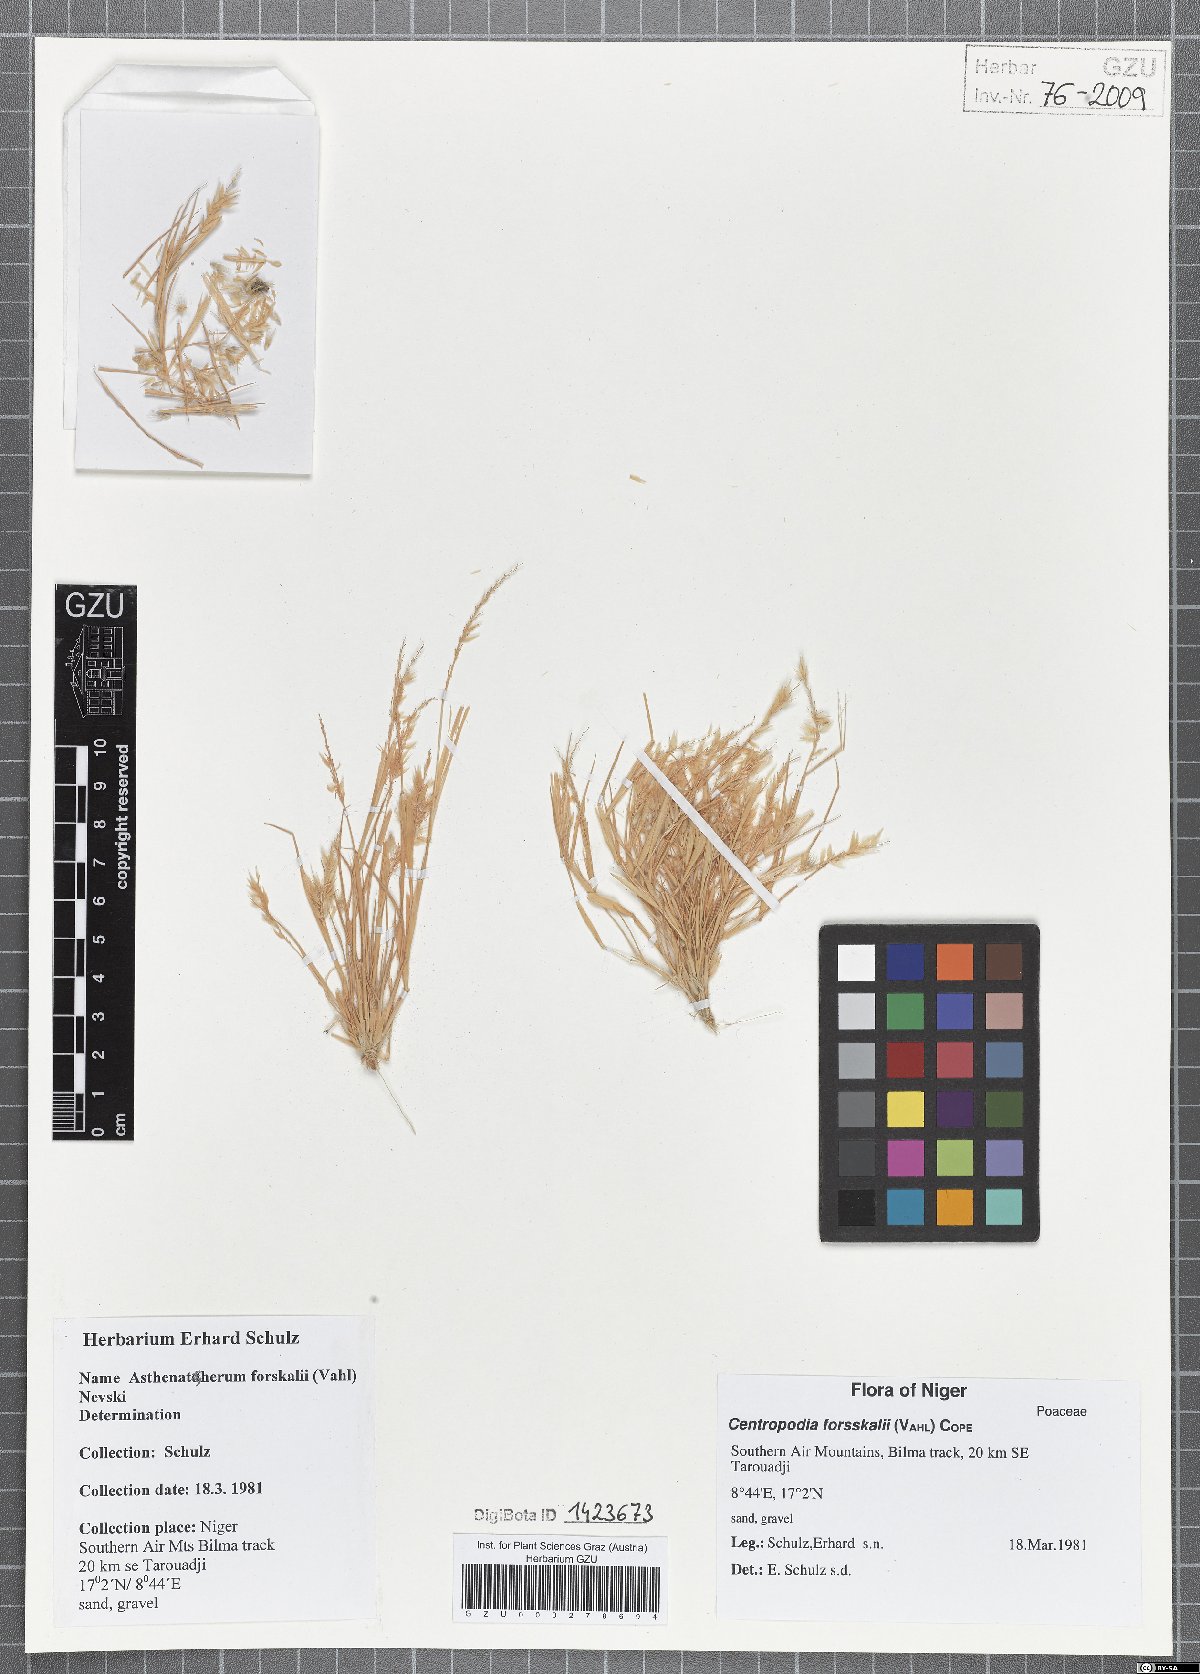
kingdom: Plantae
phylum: Tracheophyta
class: Liliopsida
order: Poales
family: Poaceae
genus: Centropodia
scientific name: Centropodia forsskalii
